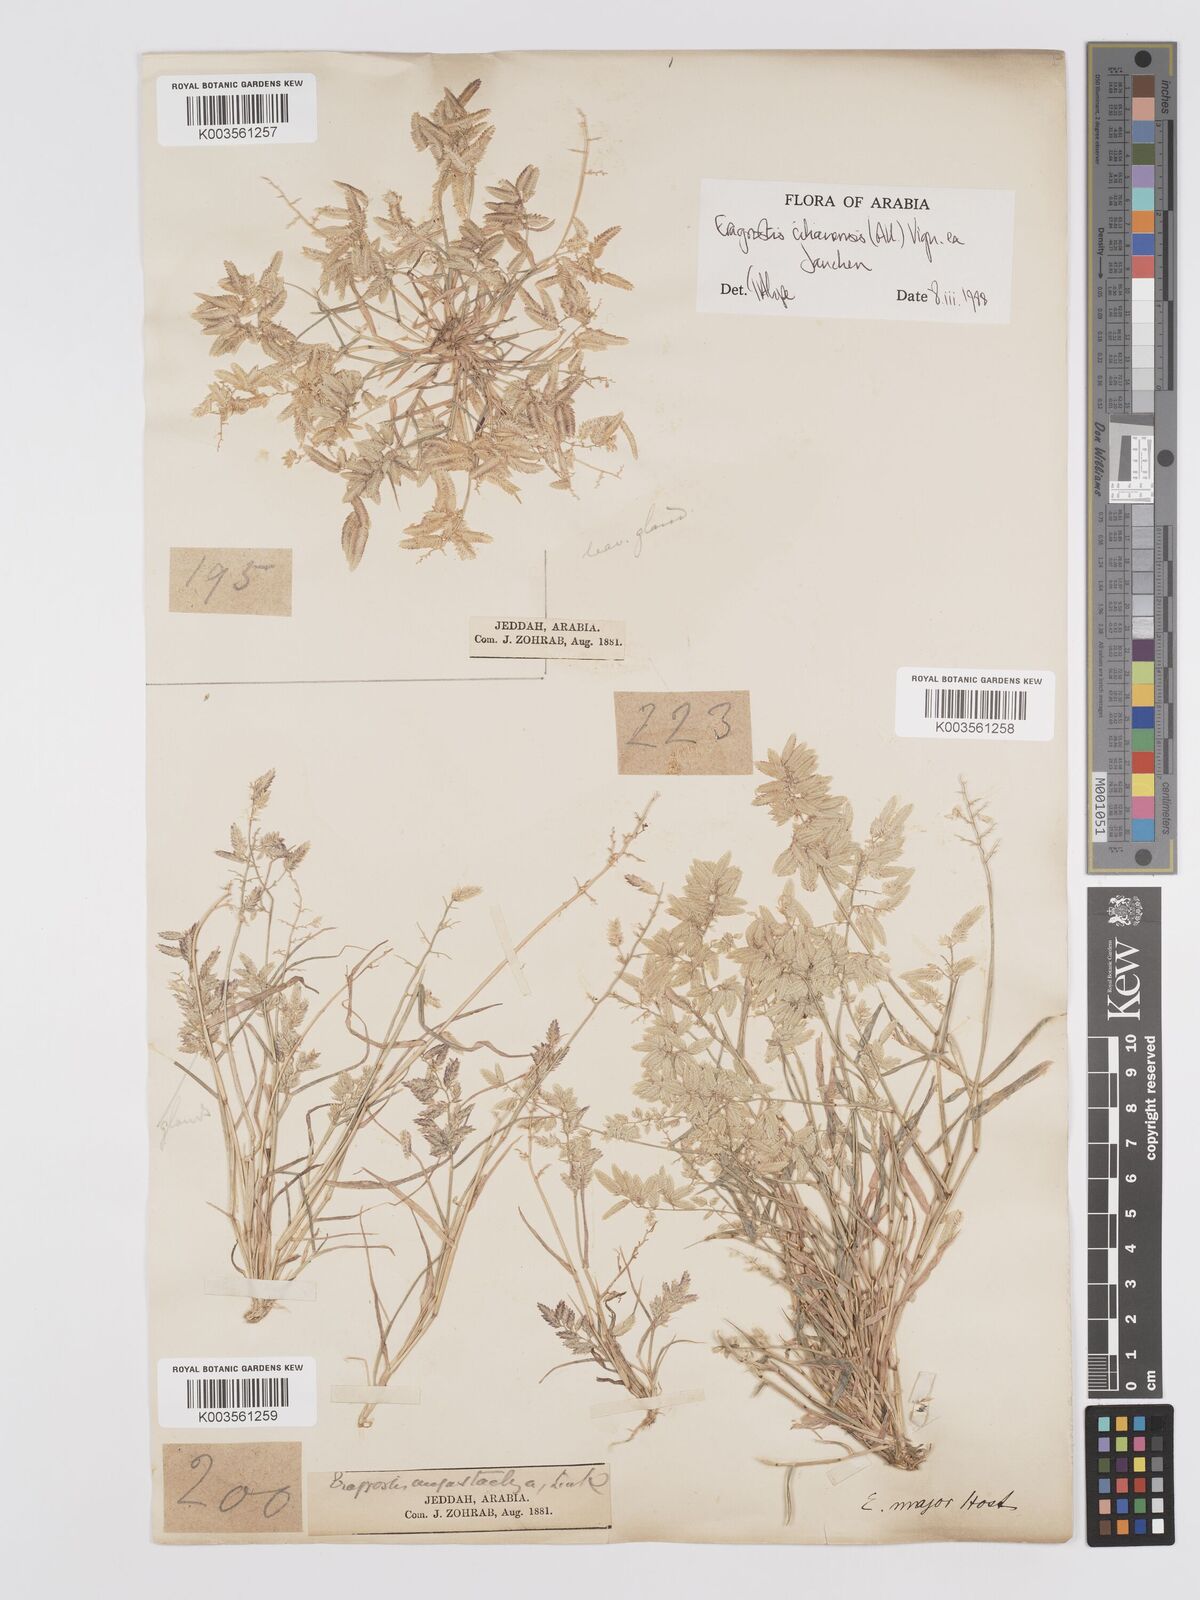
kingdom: Plantae
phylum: Tracheophyta
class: Liliopsida
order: Poales
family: Poaceae
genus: Eragrostis
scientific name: Eragrostis cilianensis
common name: Stinkgrass
